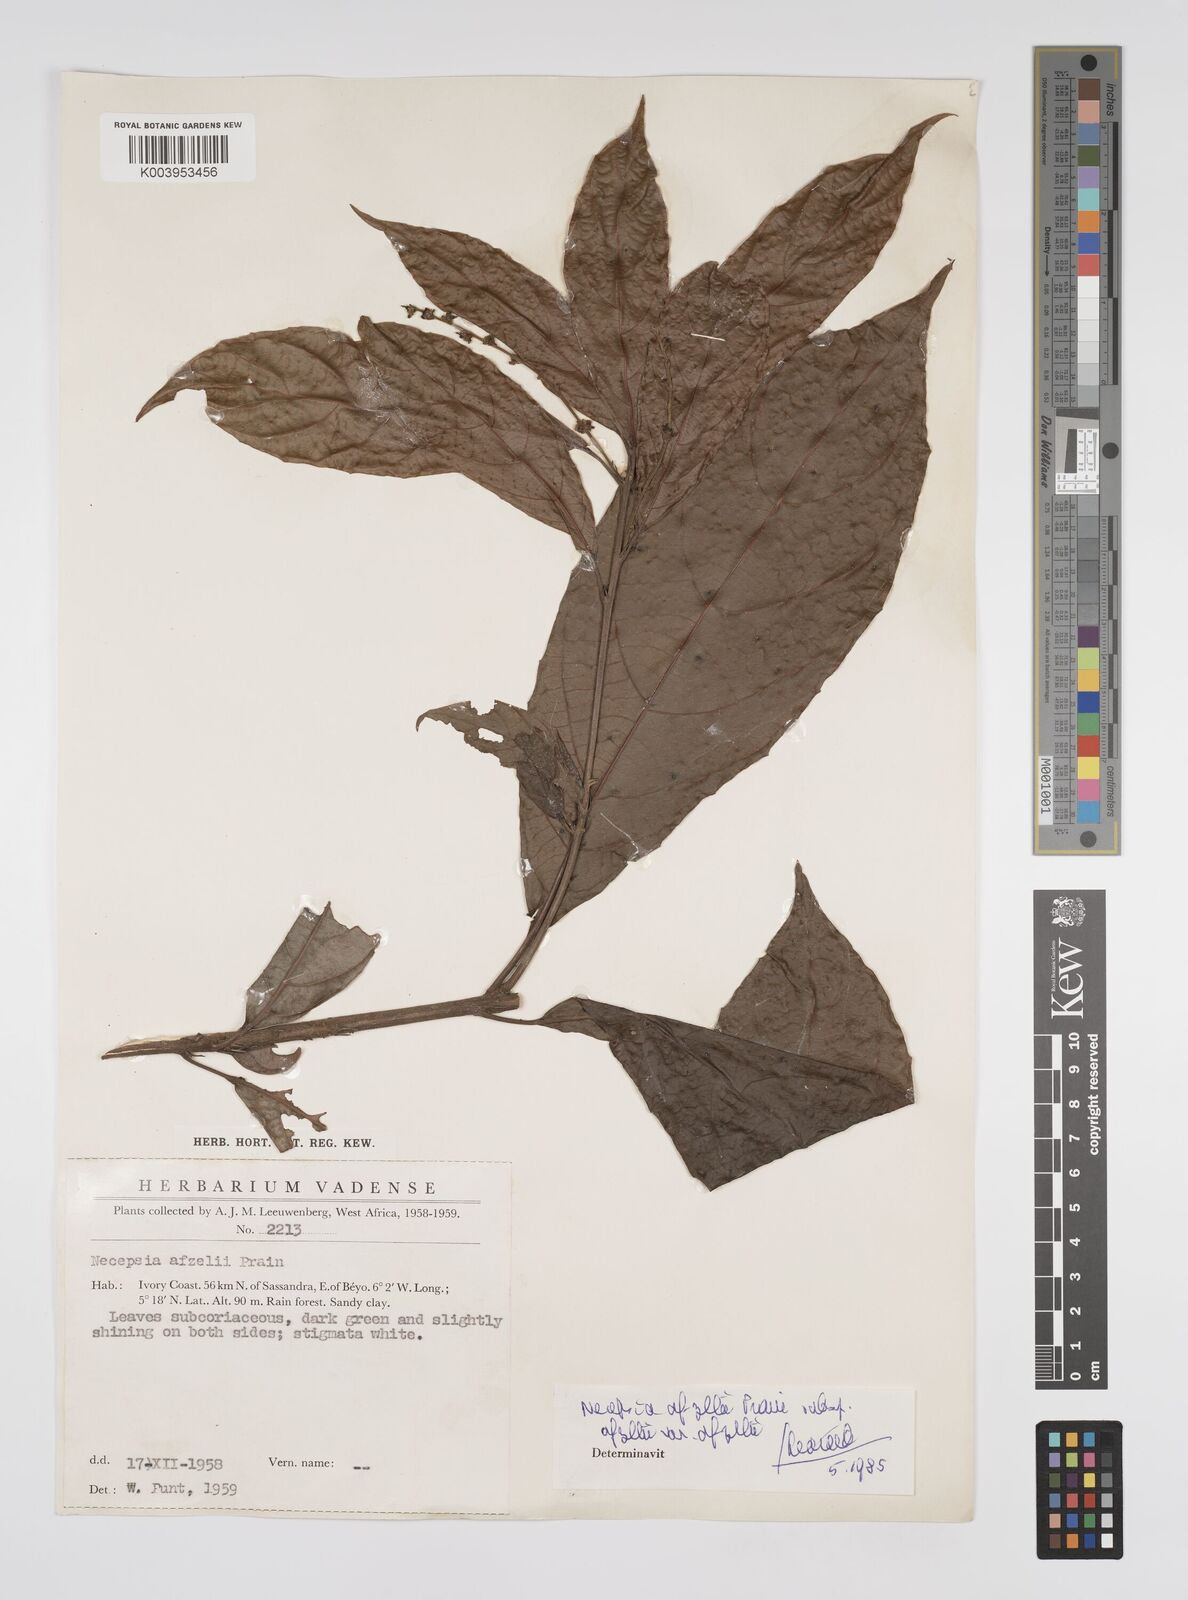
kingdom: Plantae
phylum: Tracheophyta
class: Magnoliopsida
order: Malpighiales
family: Euphorbiaceae
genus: Necepsia
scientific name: Necepsia afzelii
